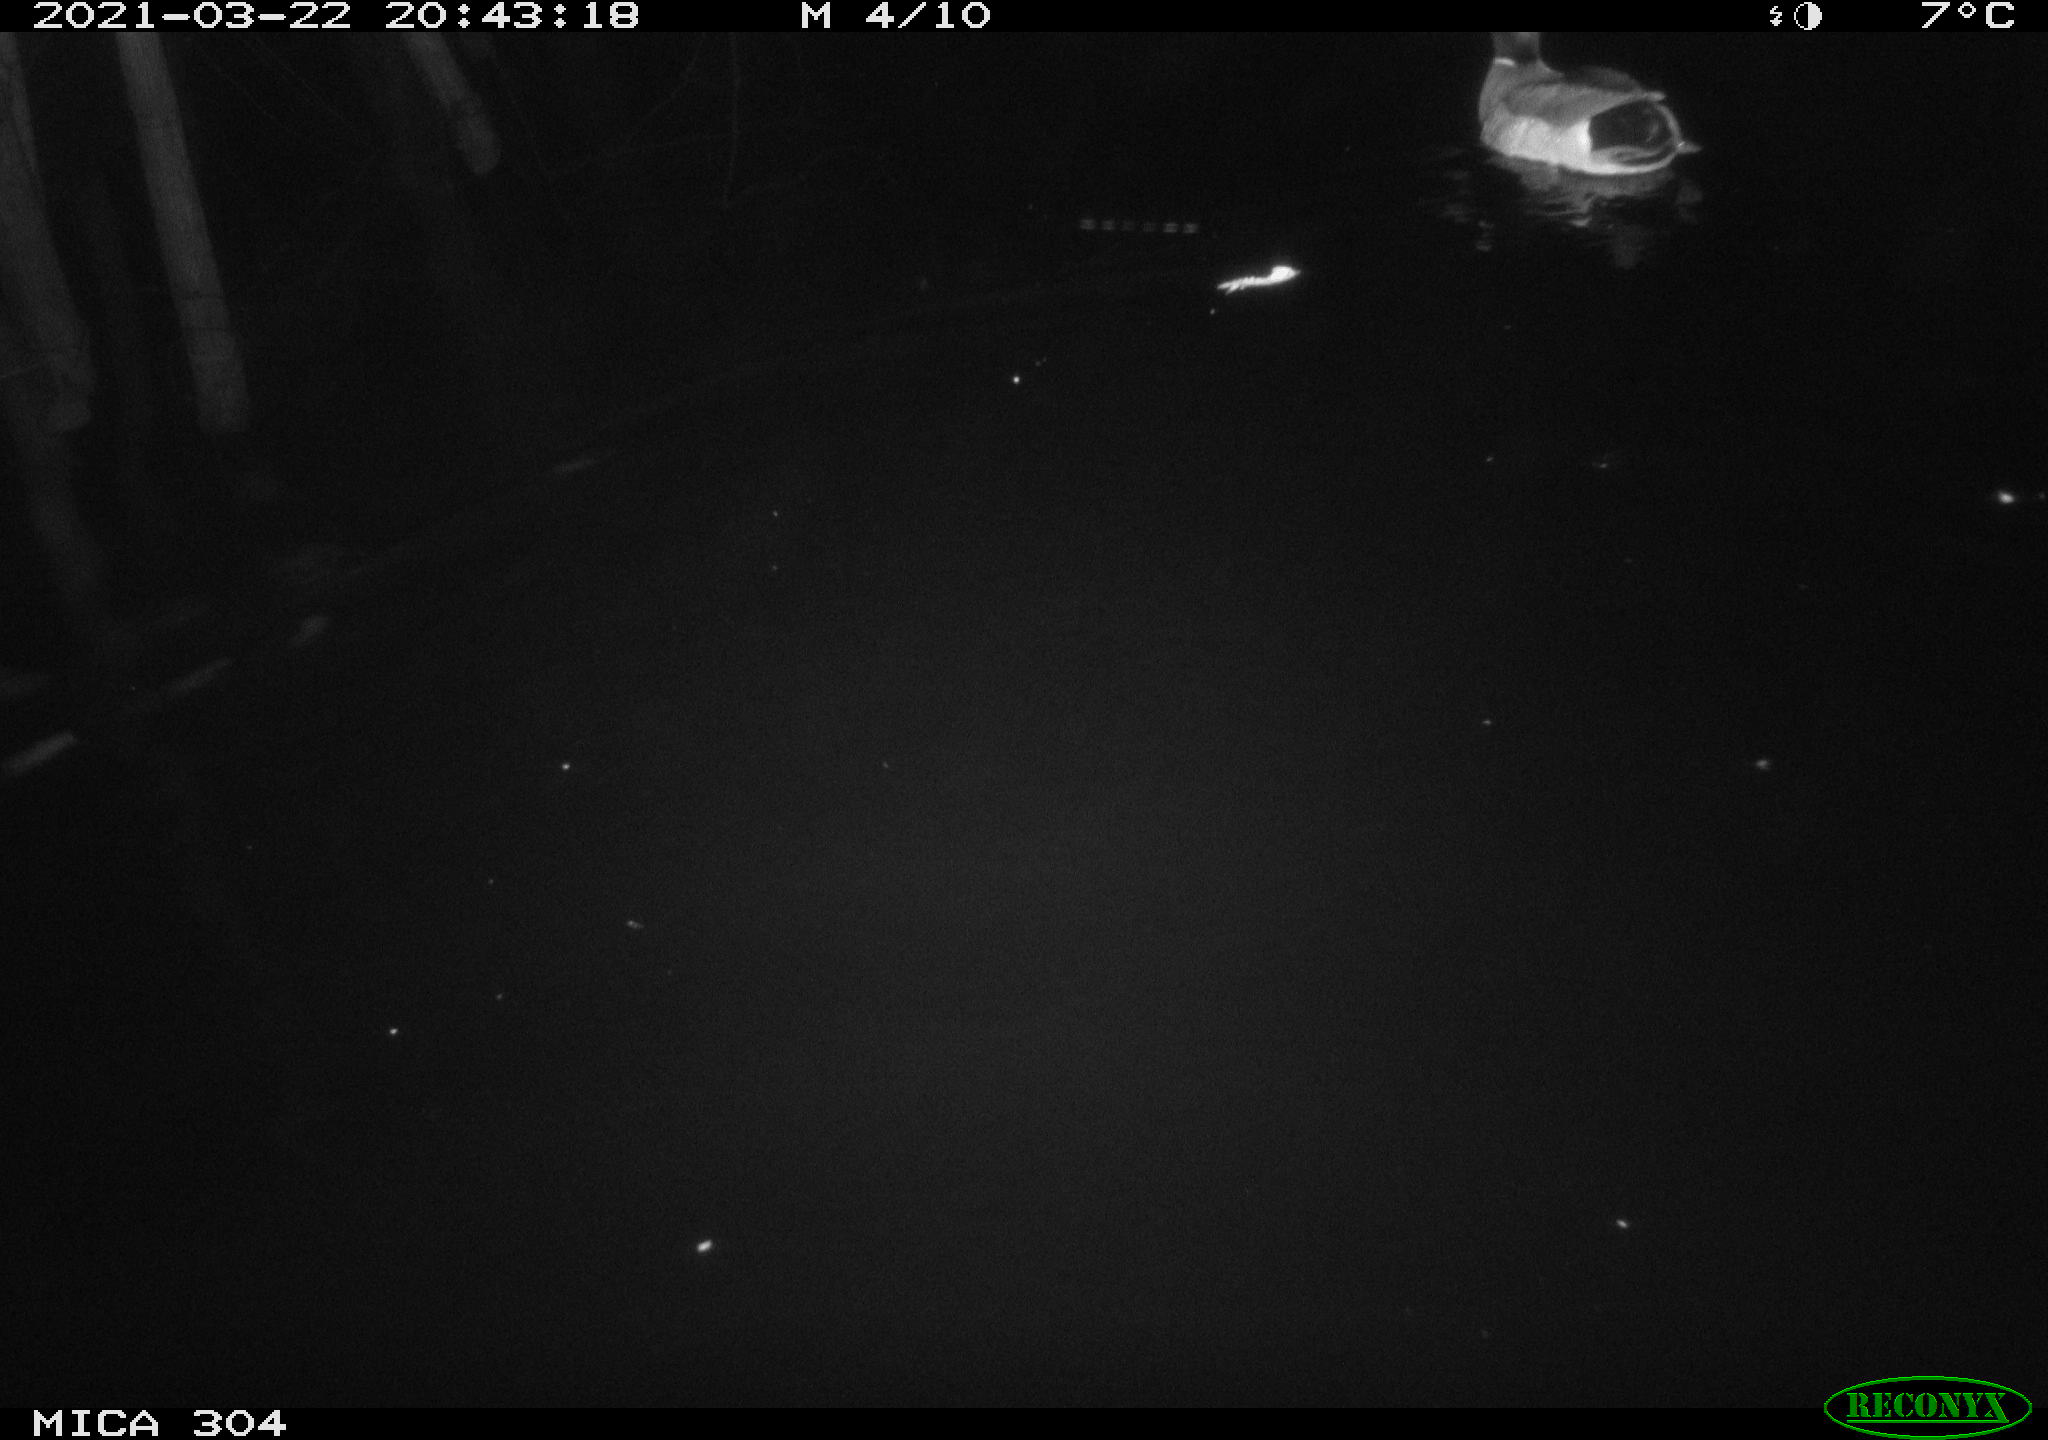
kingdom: Animalia
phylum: Chordata
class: Aves
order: Anseriformes
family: Anatidae
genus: Anas
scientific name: Anas platyrhynchos
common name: Mallard
